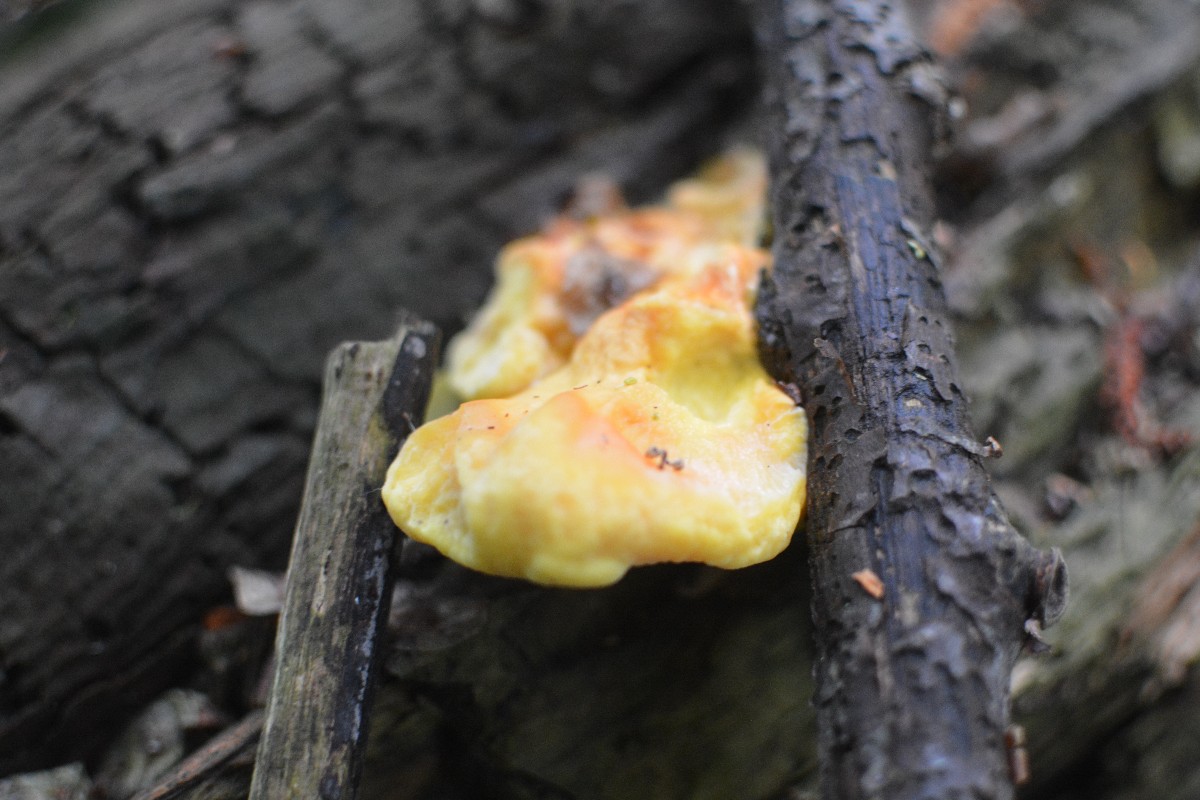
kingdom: Fungi
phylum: Basidiomycota
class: Agaricomycetes
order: Polyporales
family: Laetiporaceae
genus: Laetiporus
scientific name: Laetiporus sulphureus
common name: svovlporesvamp
